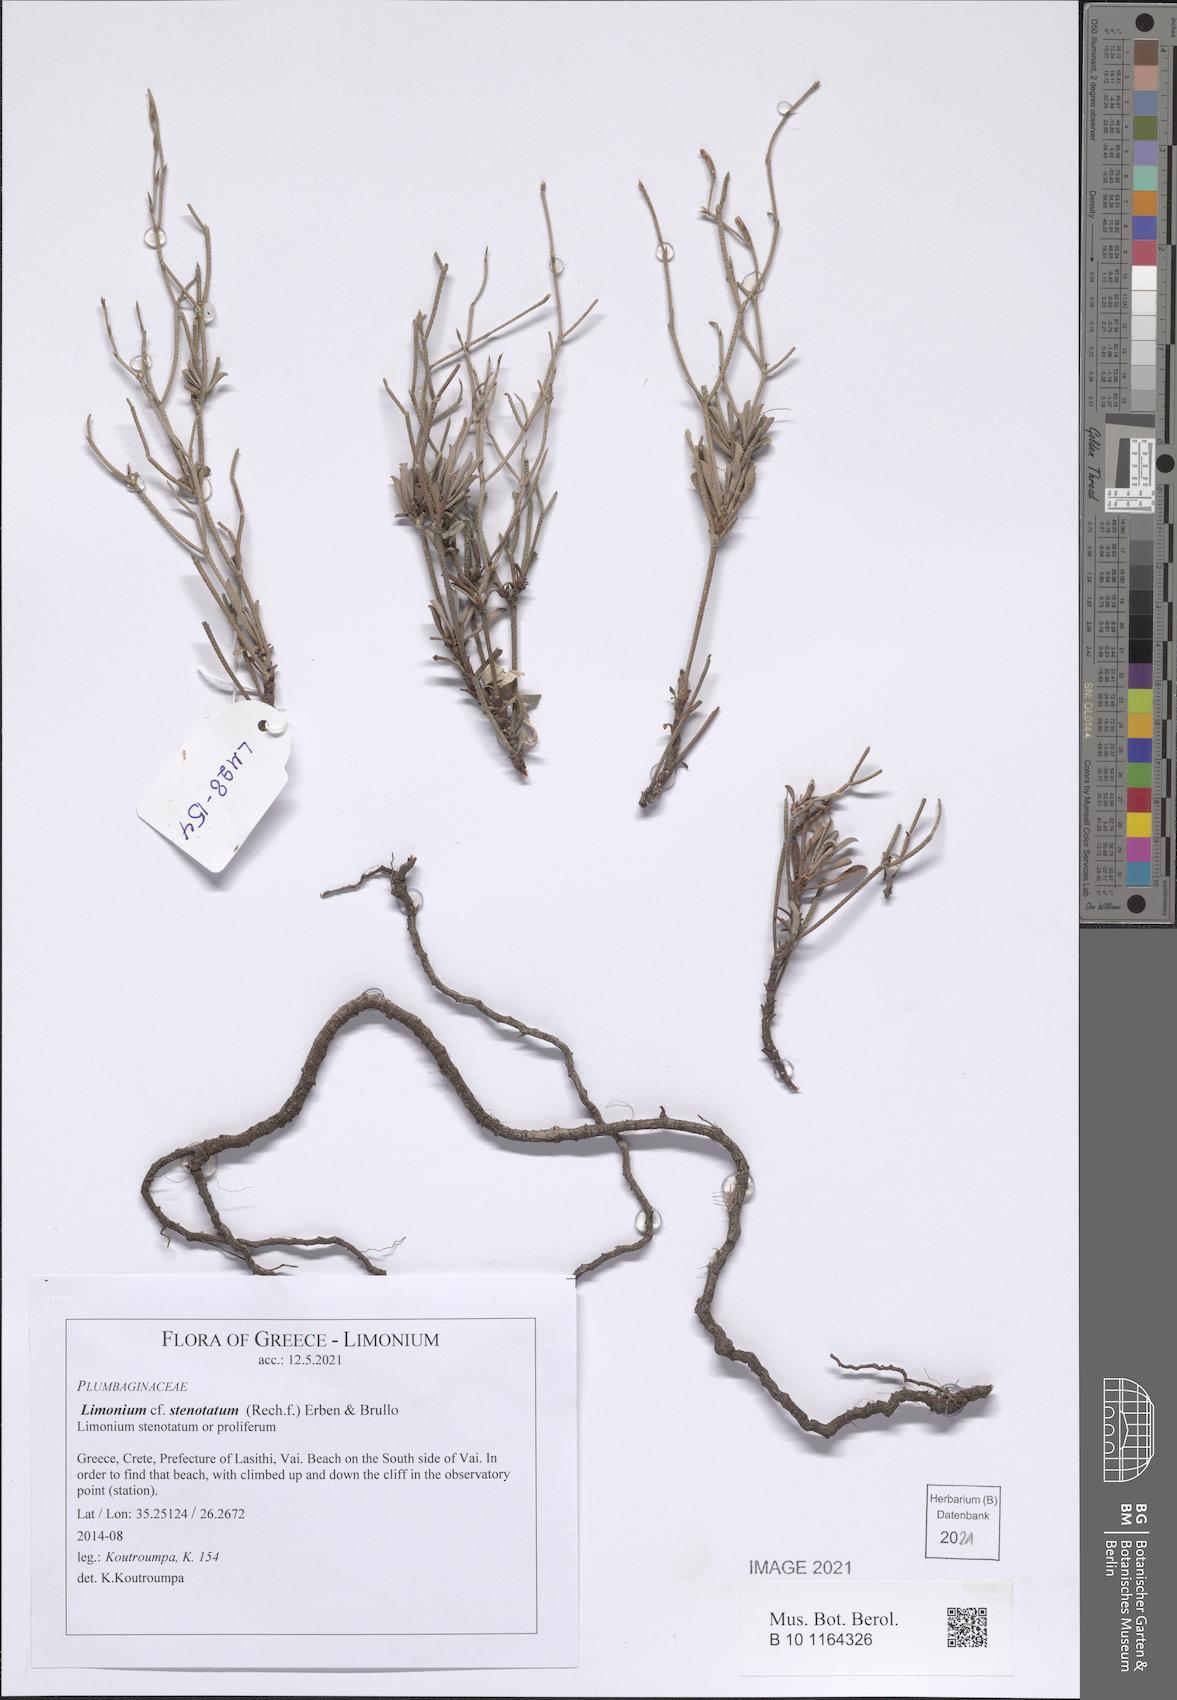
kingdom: Plantae
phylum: Tracheophyta
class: Magnoliopsida
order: Caryophyllales
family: Plumbaginaceae
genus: Limonium
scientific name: Limonium stenotatum
